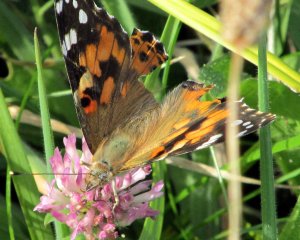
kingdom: Animalia
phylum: Arthropoda
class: Insecta
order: Lepidoptera
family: Nymphalidae
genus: Vanessa
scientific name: Vanessa cardui
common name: Painted Lady
